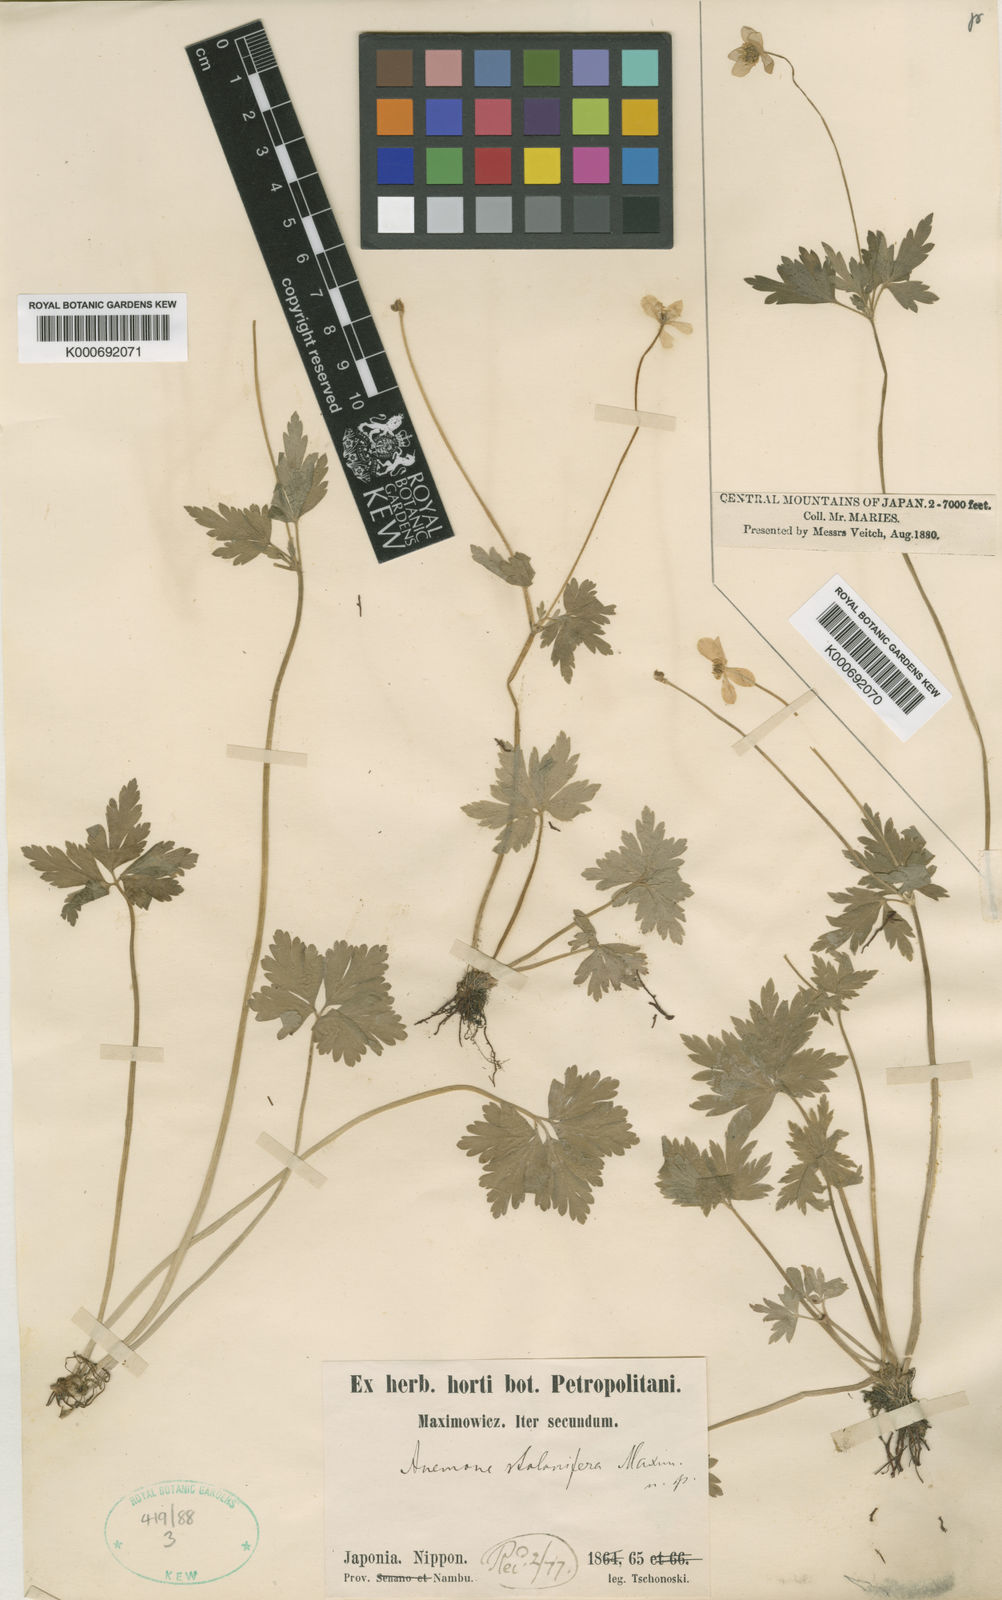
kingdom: Plantae
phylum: Tracheophyta
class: Magnoliopsida
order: Ranunculales
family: Ranunculaceae
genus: Anemone
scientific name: Anemone stolonifera
